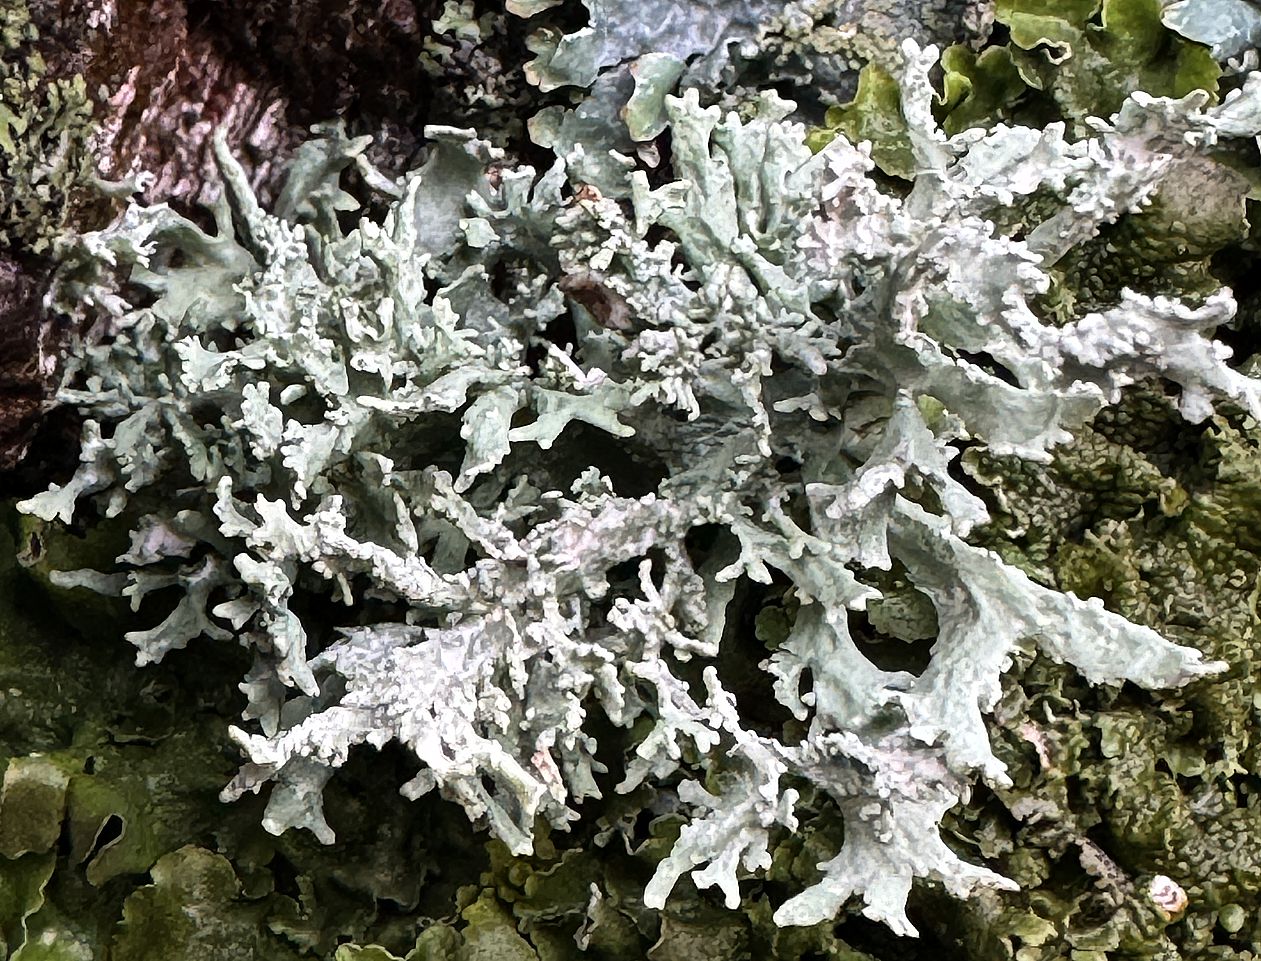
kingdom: Fungi
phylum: Ascomycota
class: Lecanoromycetes
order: Lecanorales
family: Parmeliaceae
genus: Evernia
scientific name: Evernia prunastri
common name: almindelig slåenlav
